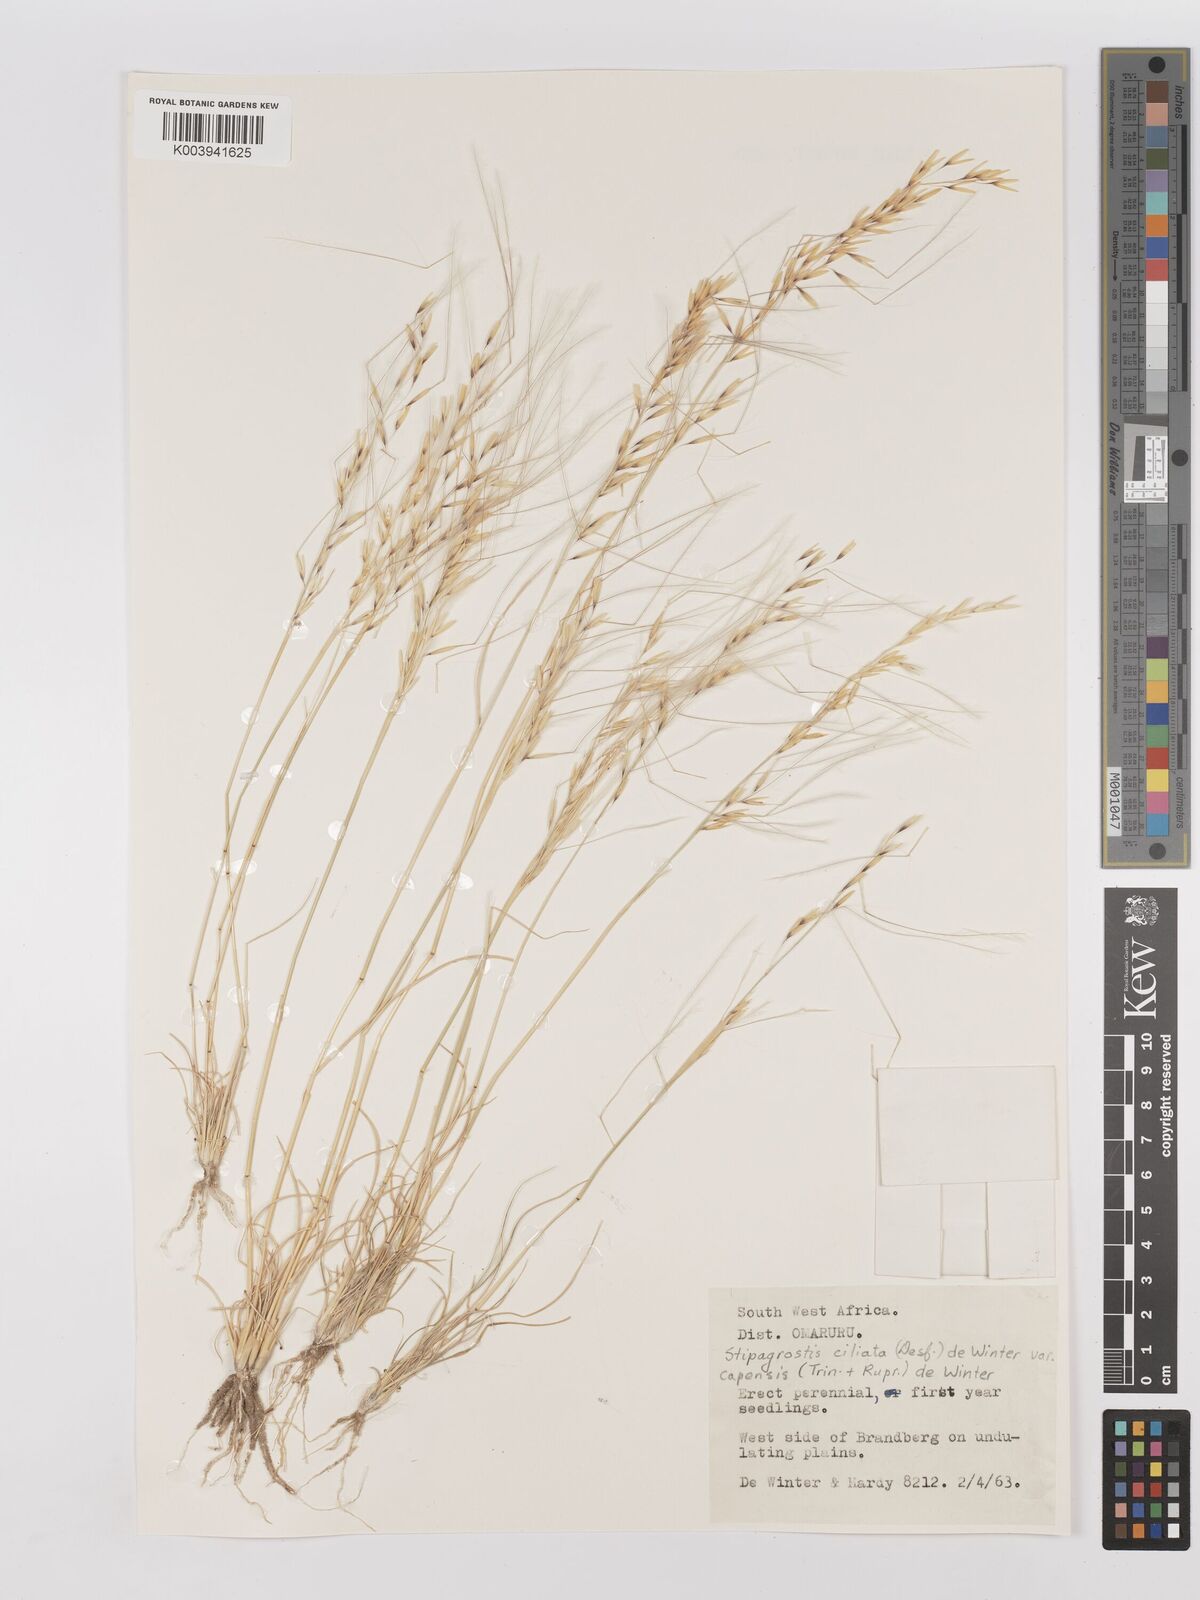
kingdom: Plantae
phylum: Tracheophyta
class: Liliopsida
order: Poales
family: Poaceae
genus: Stipagrostis
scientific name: Stipagrostis ciliata
